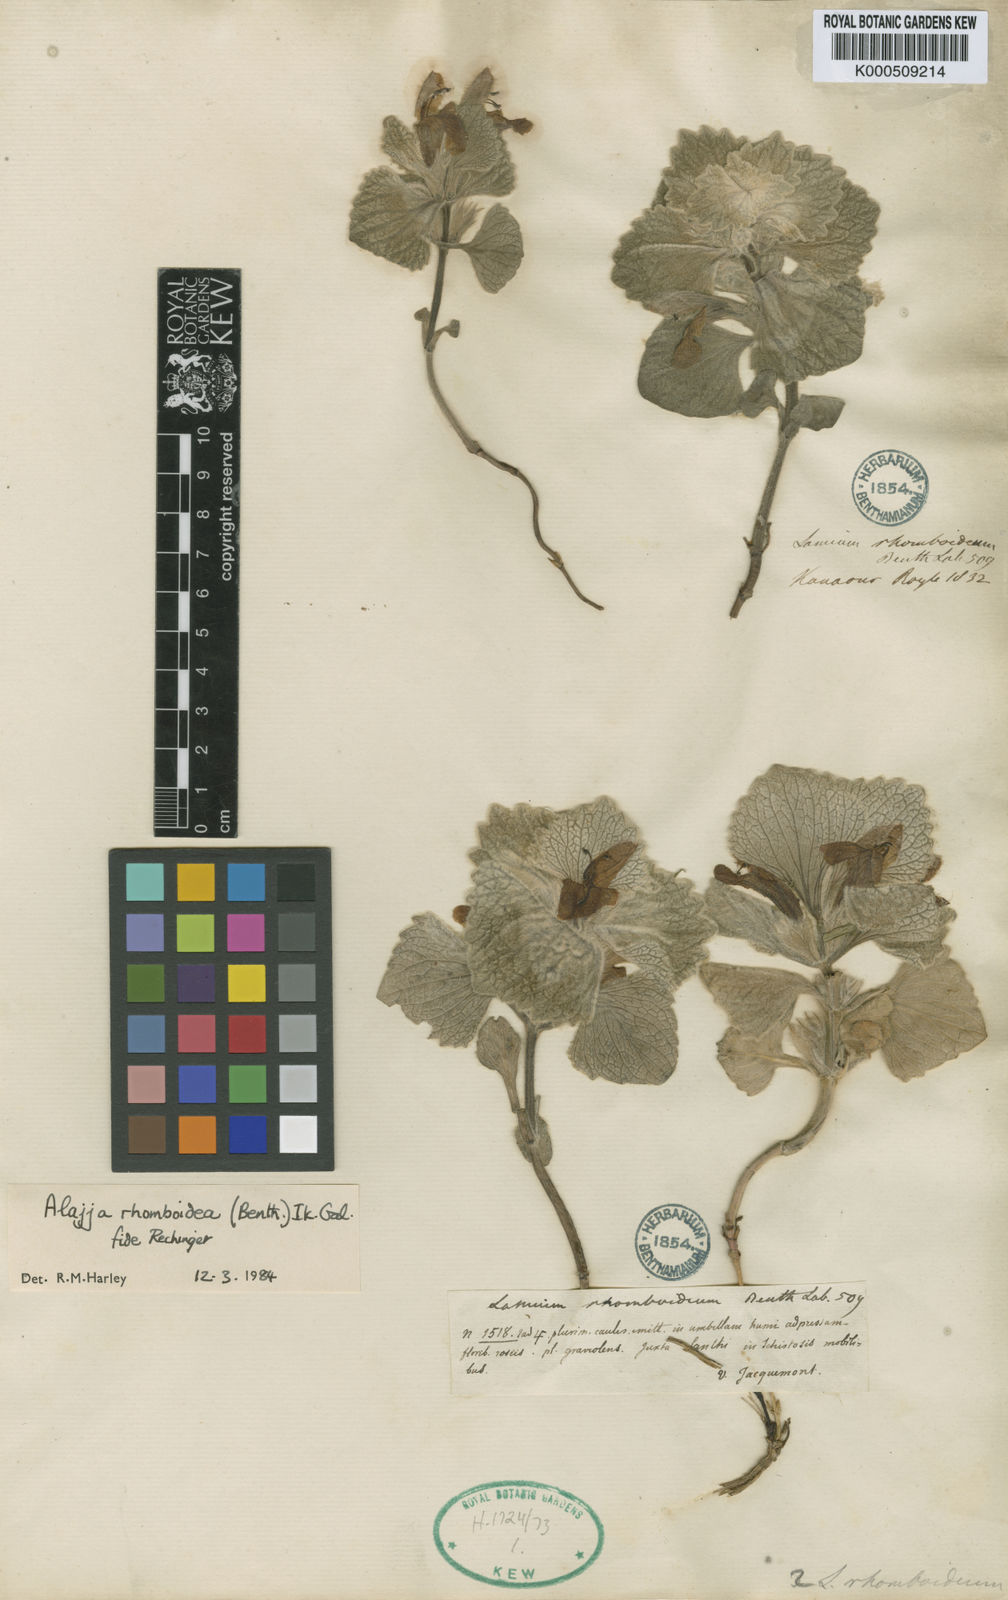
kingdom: Plantae
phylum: Tracheophyta
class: Magnoliopsida
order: Lamiales
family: Lamiaceae
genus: Eriophyton
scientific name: Eriophyton rhomboideum
